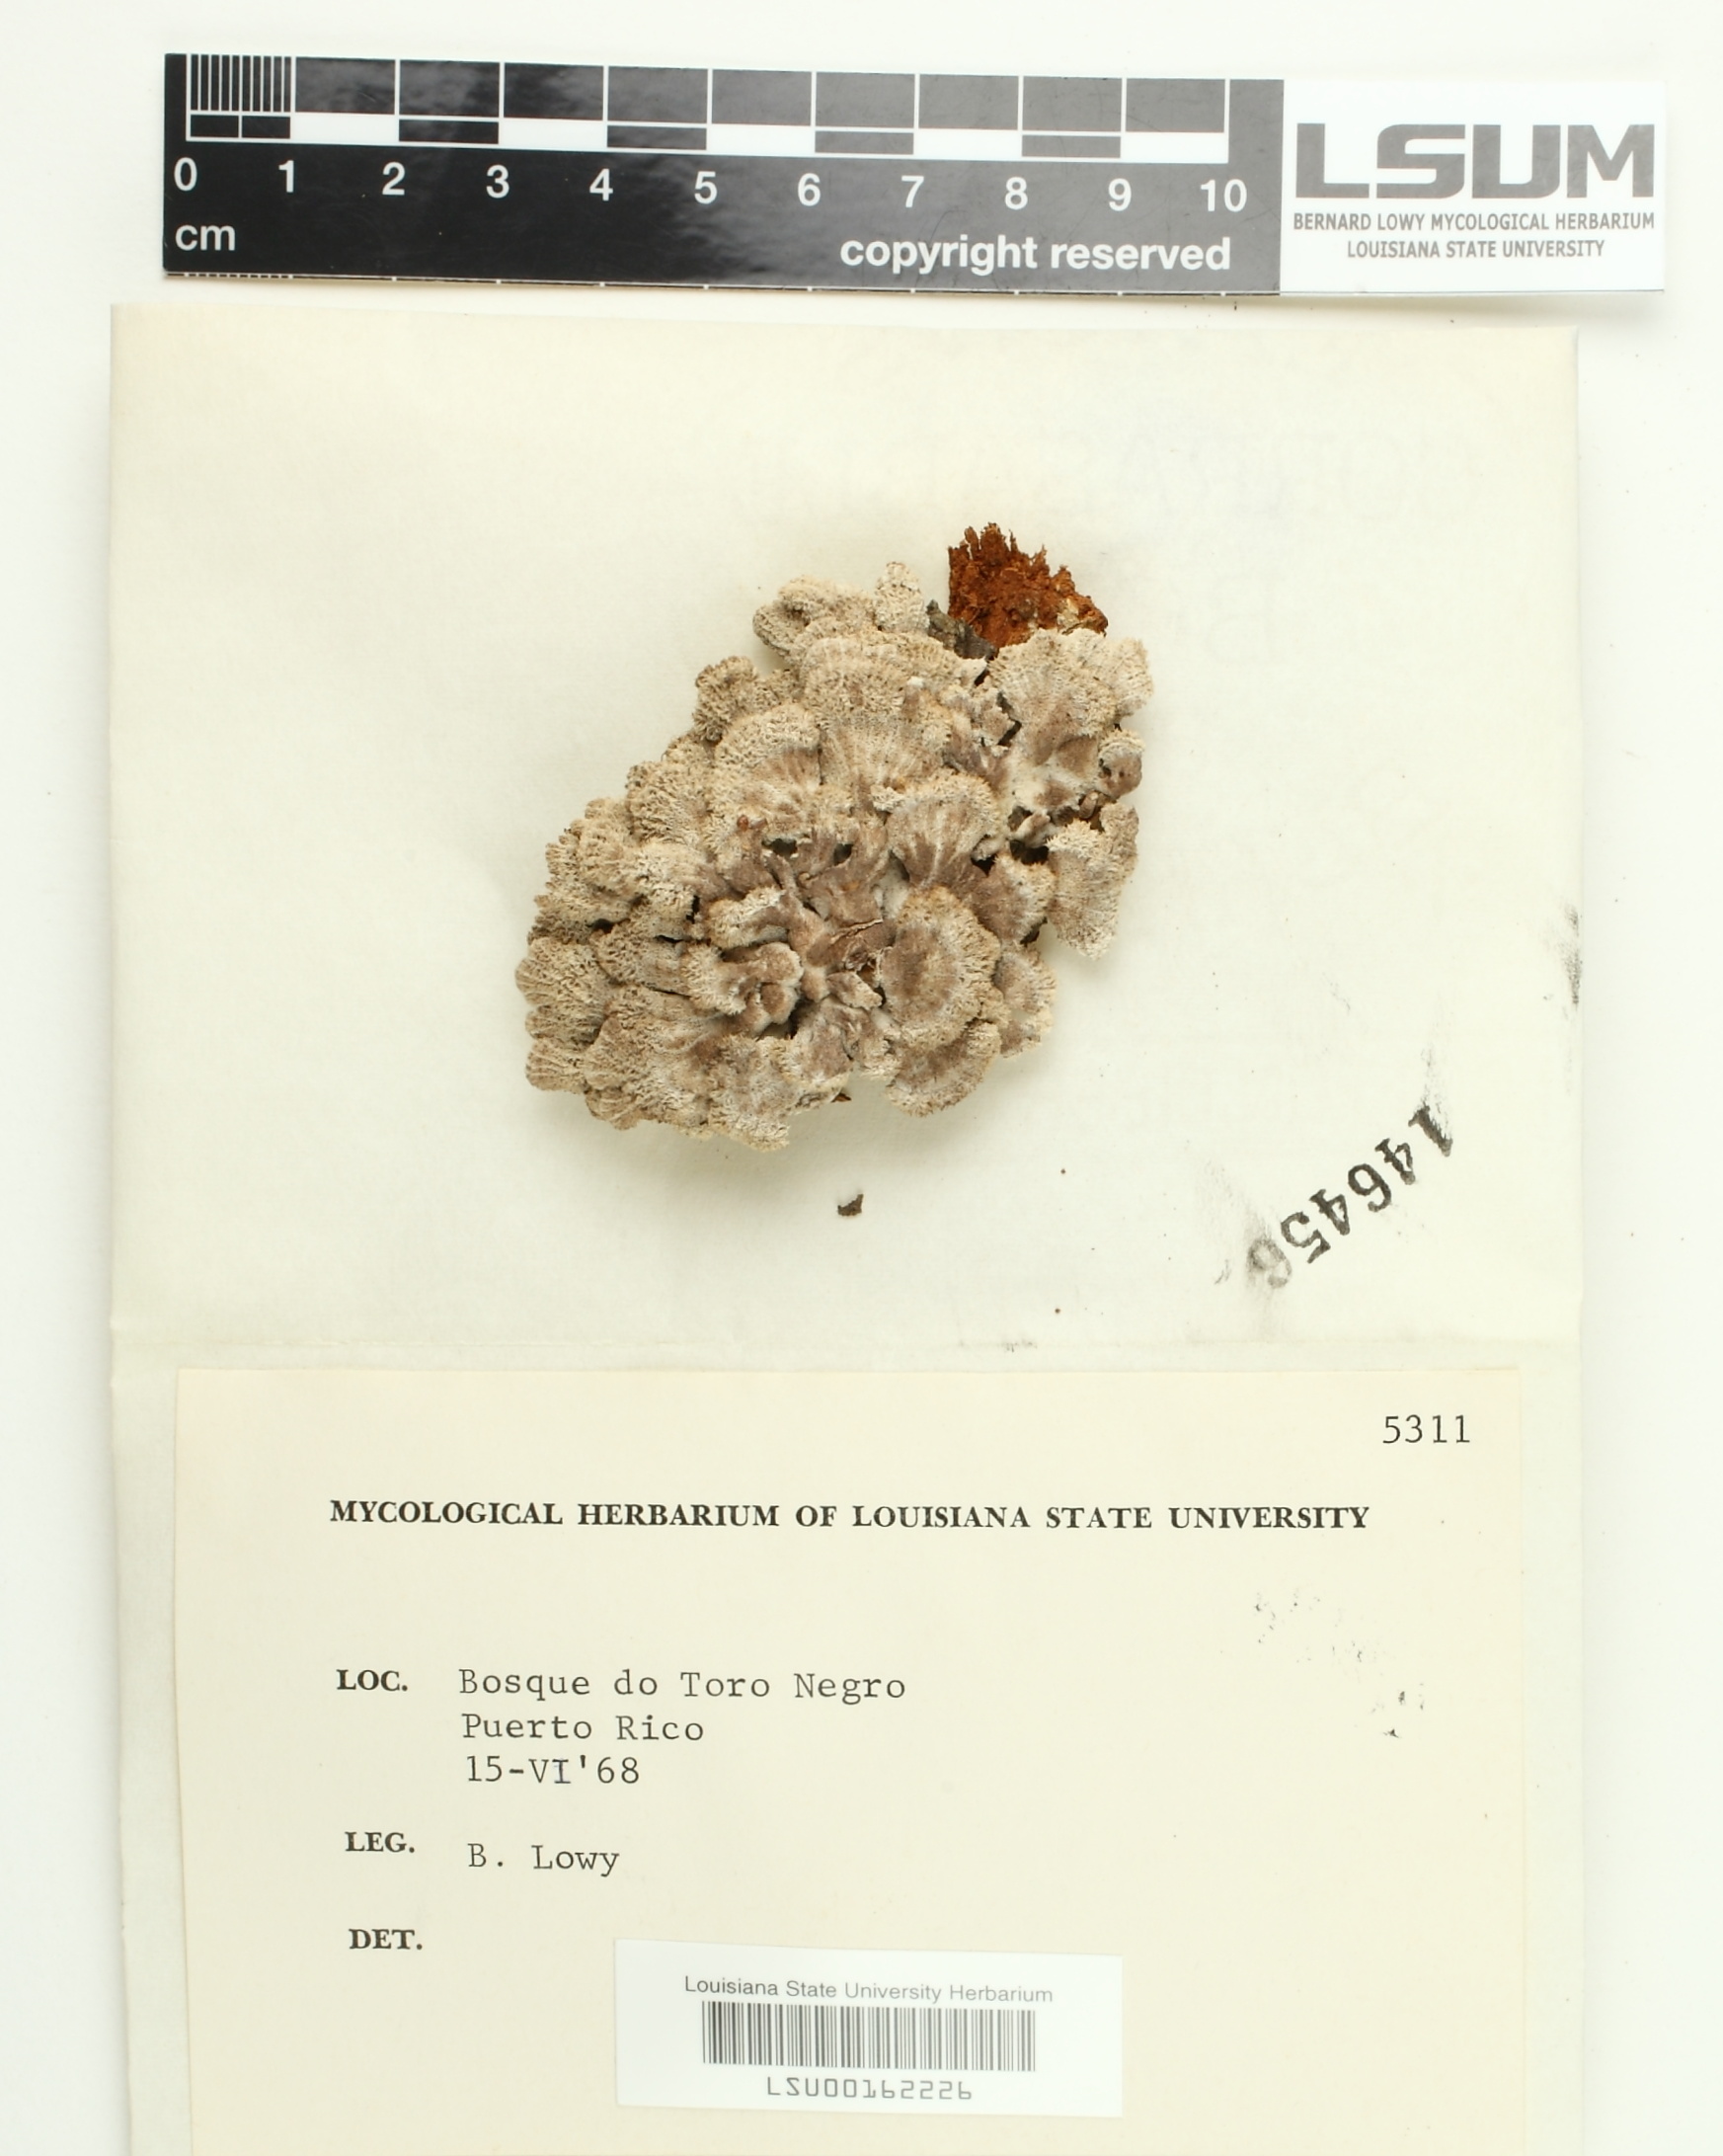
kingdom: Fungi
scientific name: Fungi
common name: Fungi
